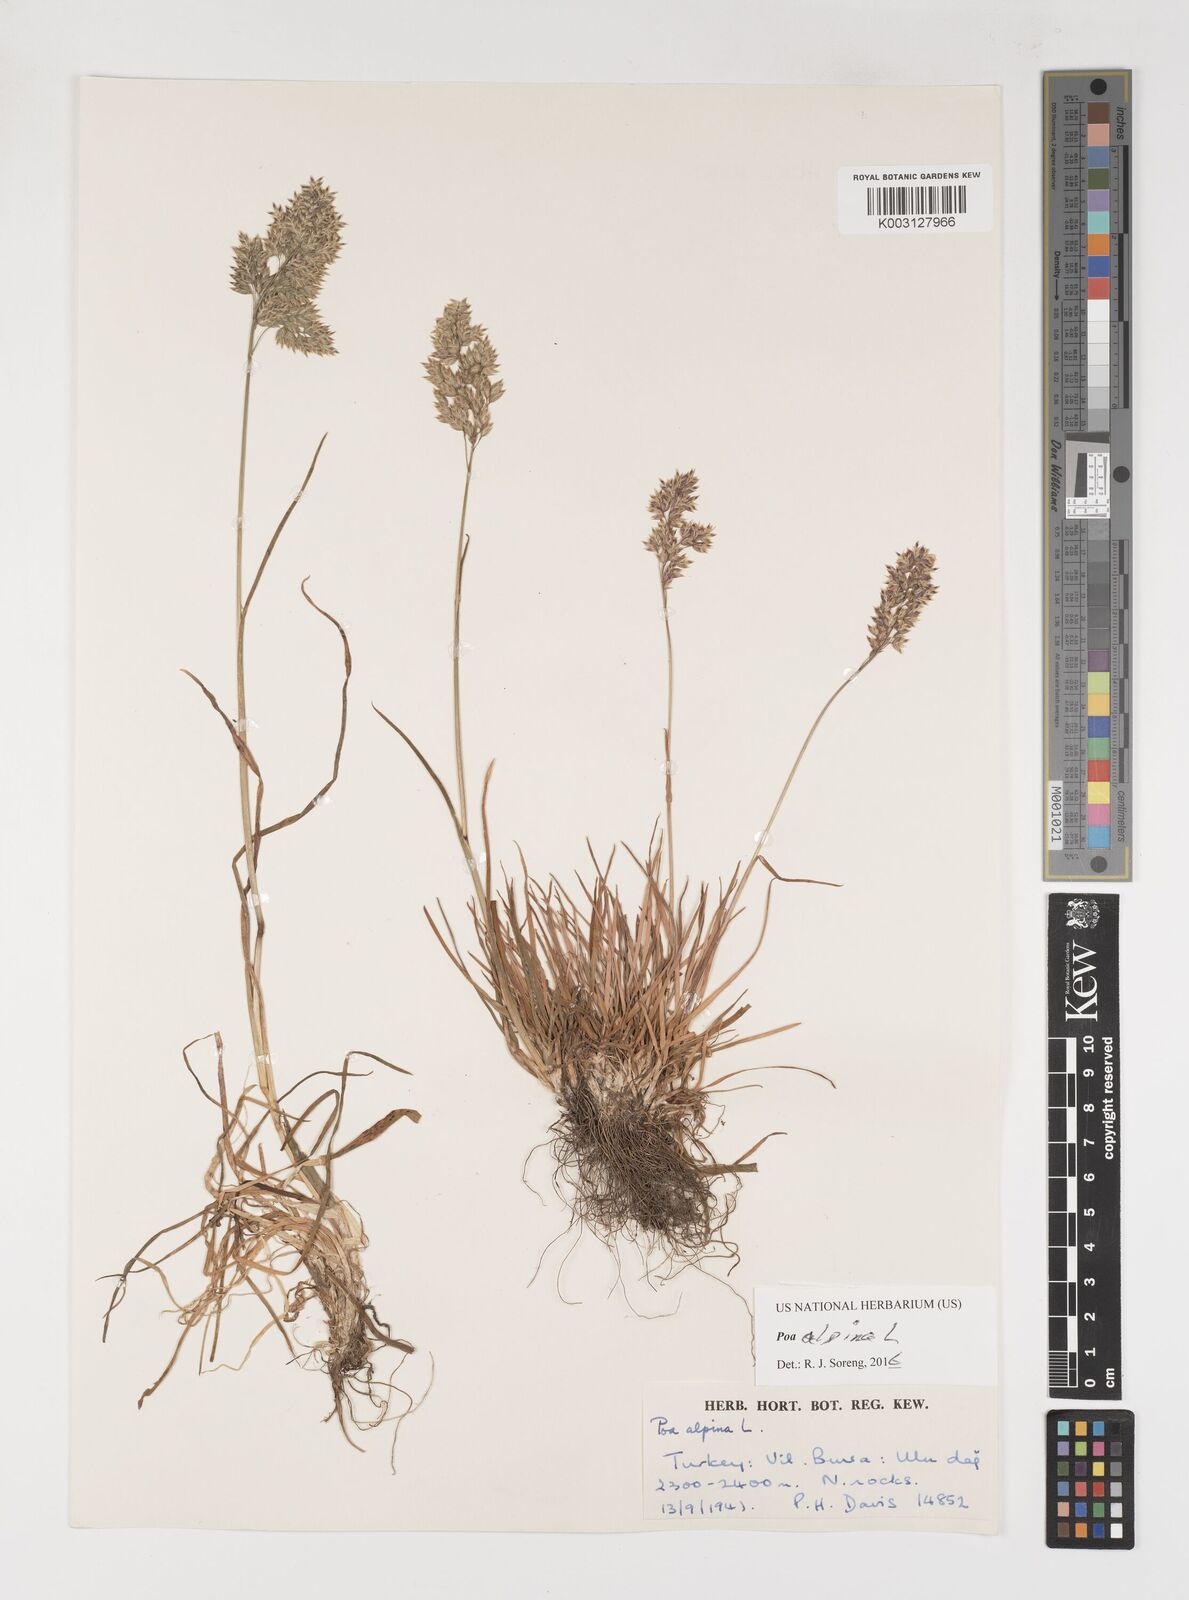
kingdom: Plantae
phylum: Tracheophyta
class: Liliopsida
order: Poales
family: Poaceae
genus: Poa
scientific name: Poa alpina
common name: Alpine bluegrass
